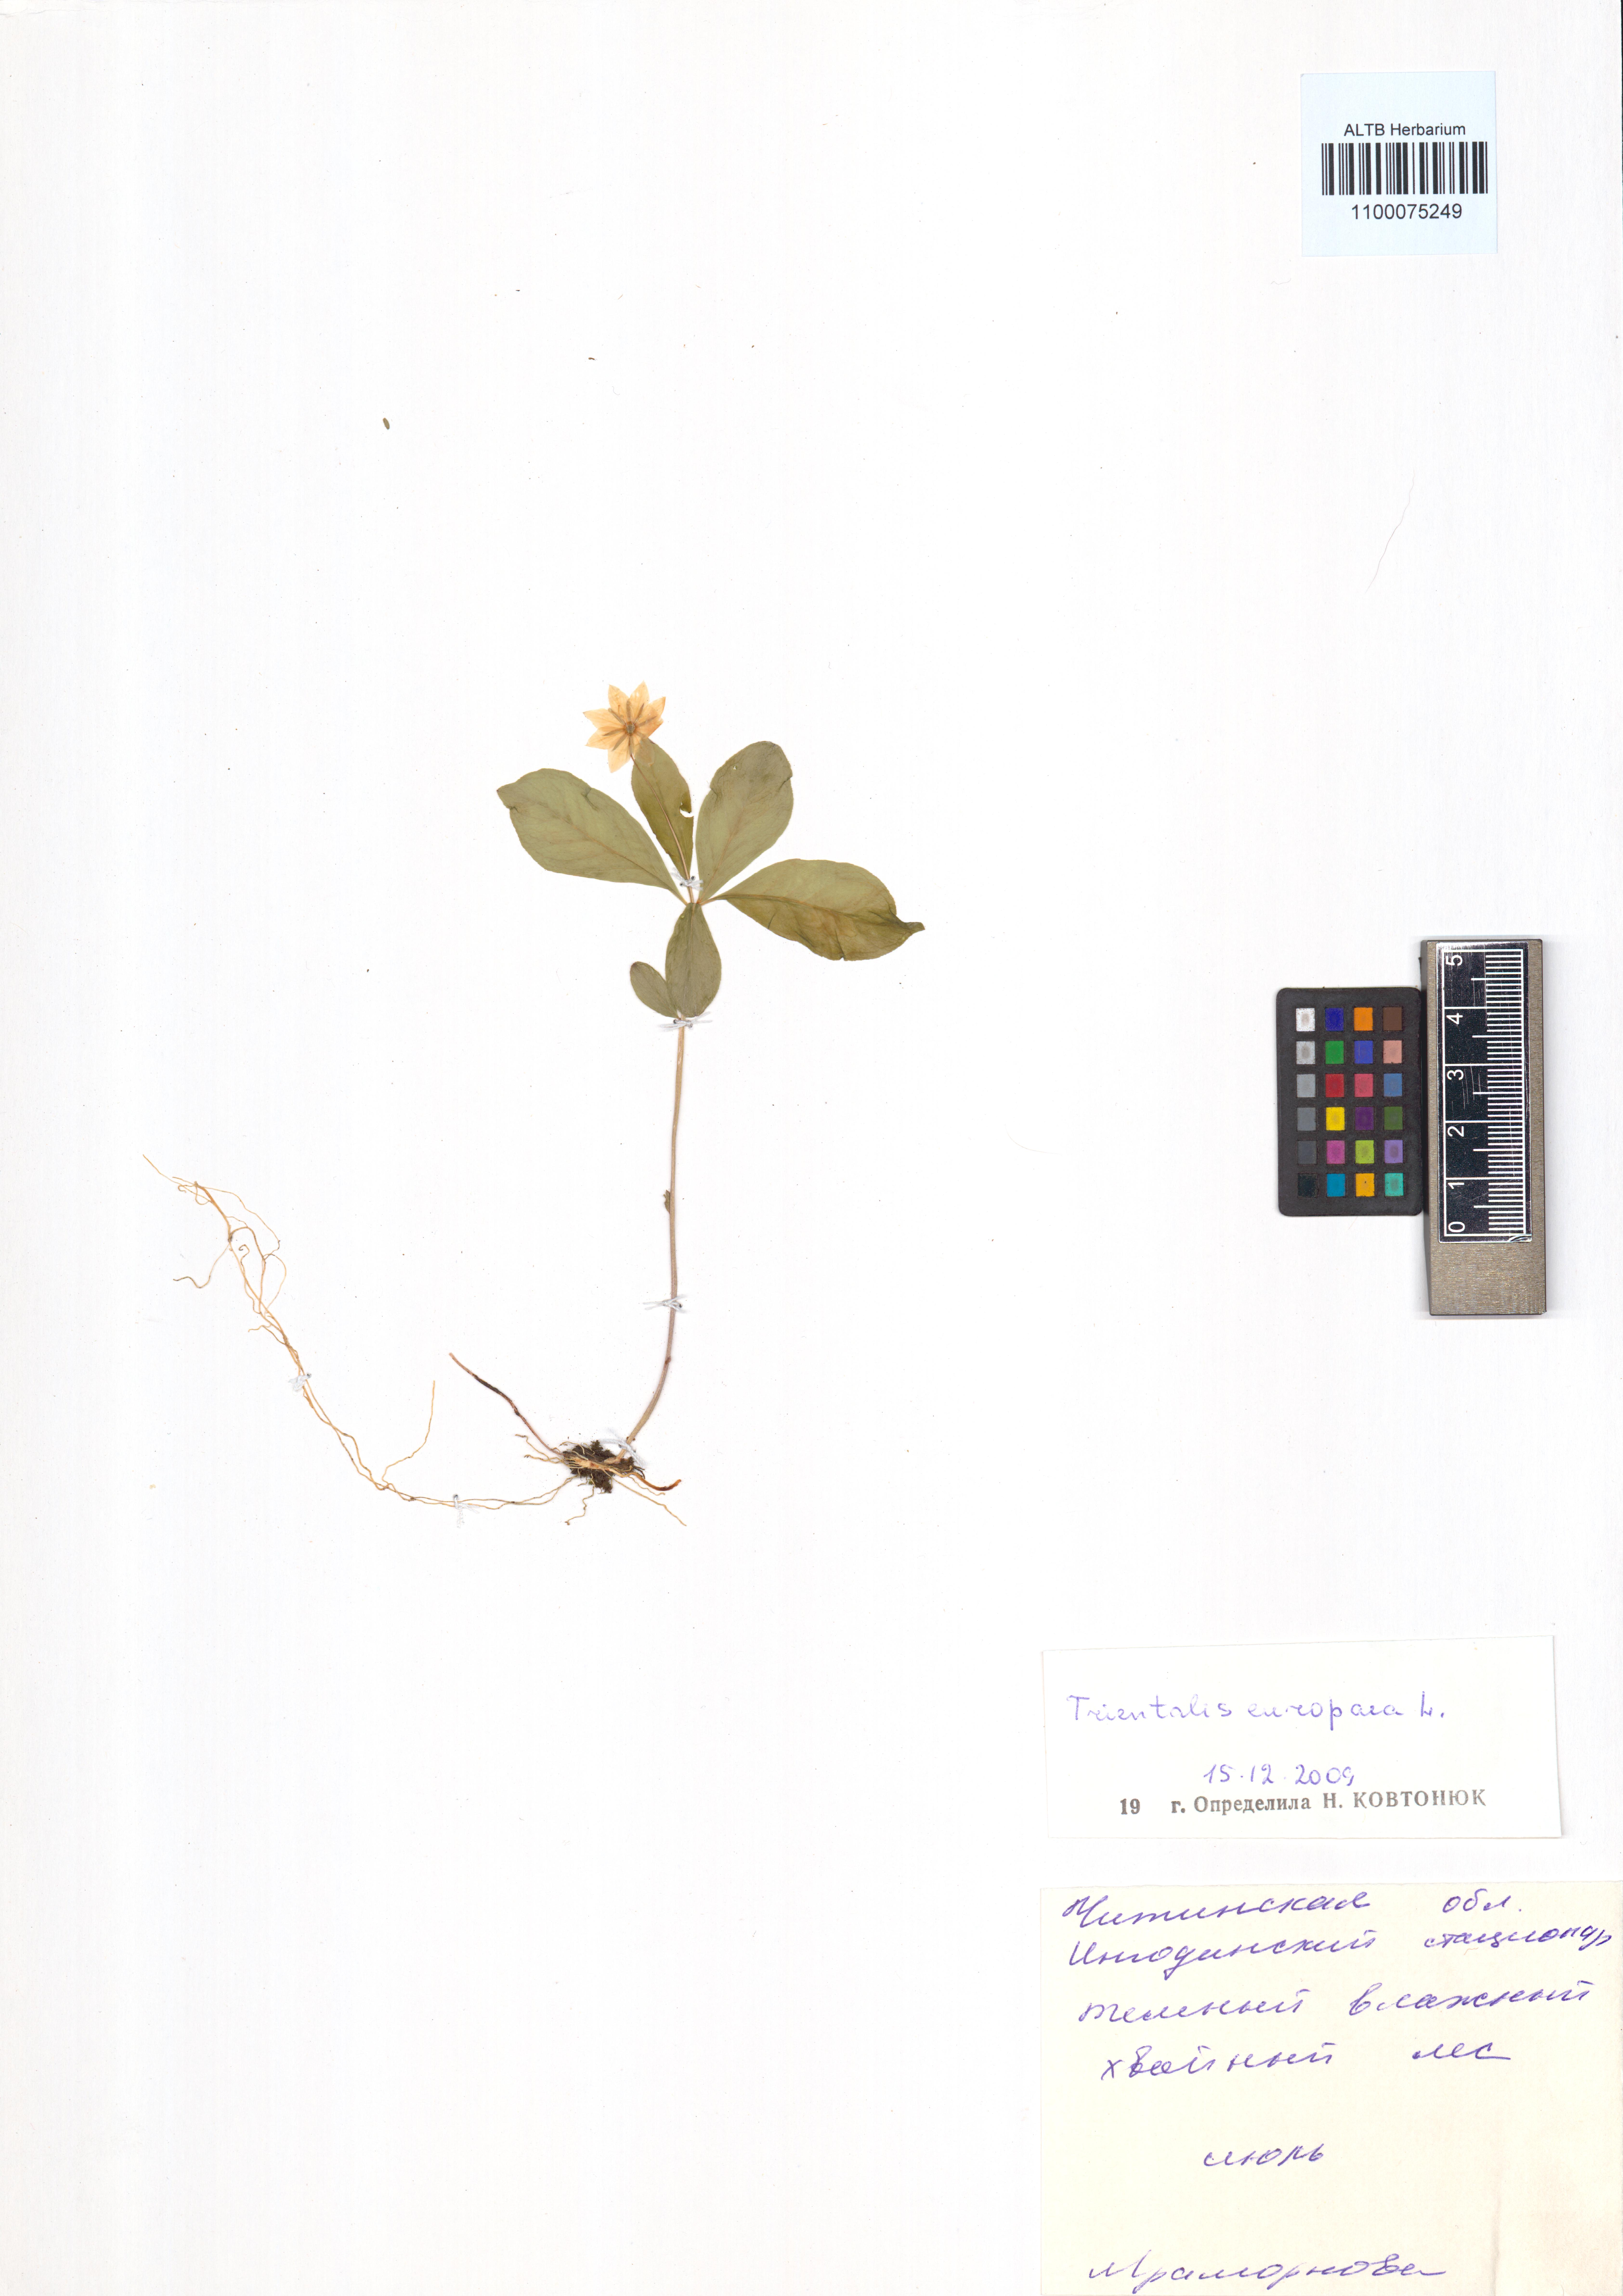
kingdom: Plantae
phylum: Tracheophyta
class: Magnoliopsida
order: Ericales
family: Primulaceae
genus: Lysimachia
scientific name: Lysimachia europaea
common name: Arctic starflower
